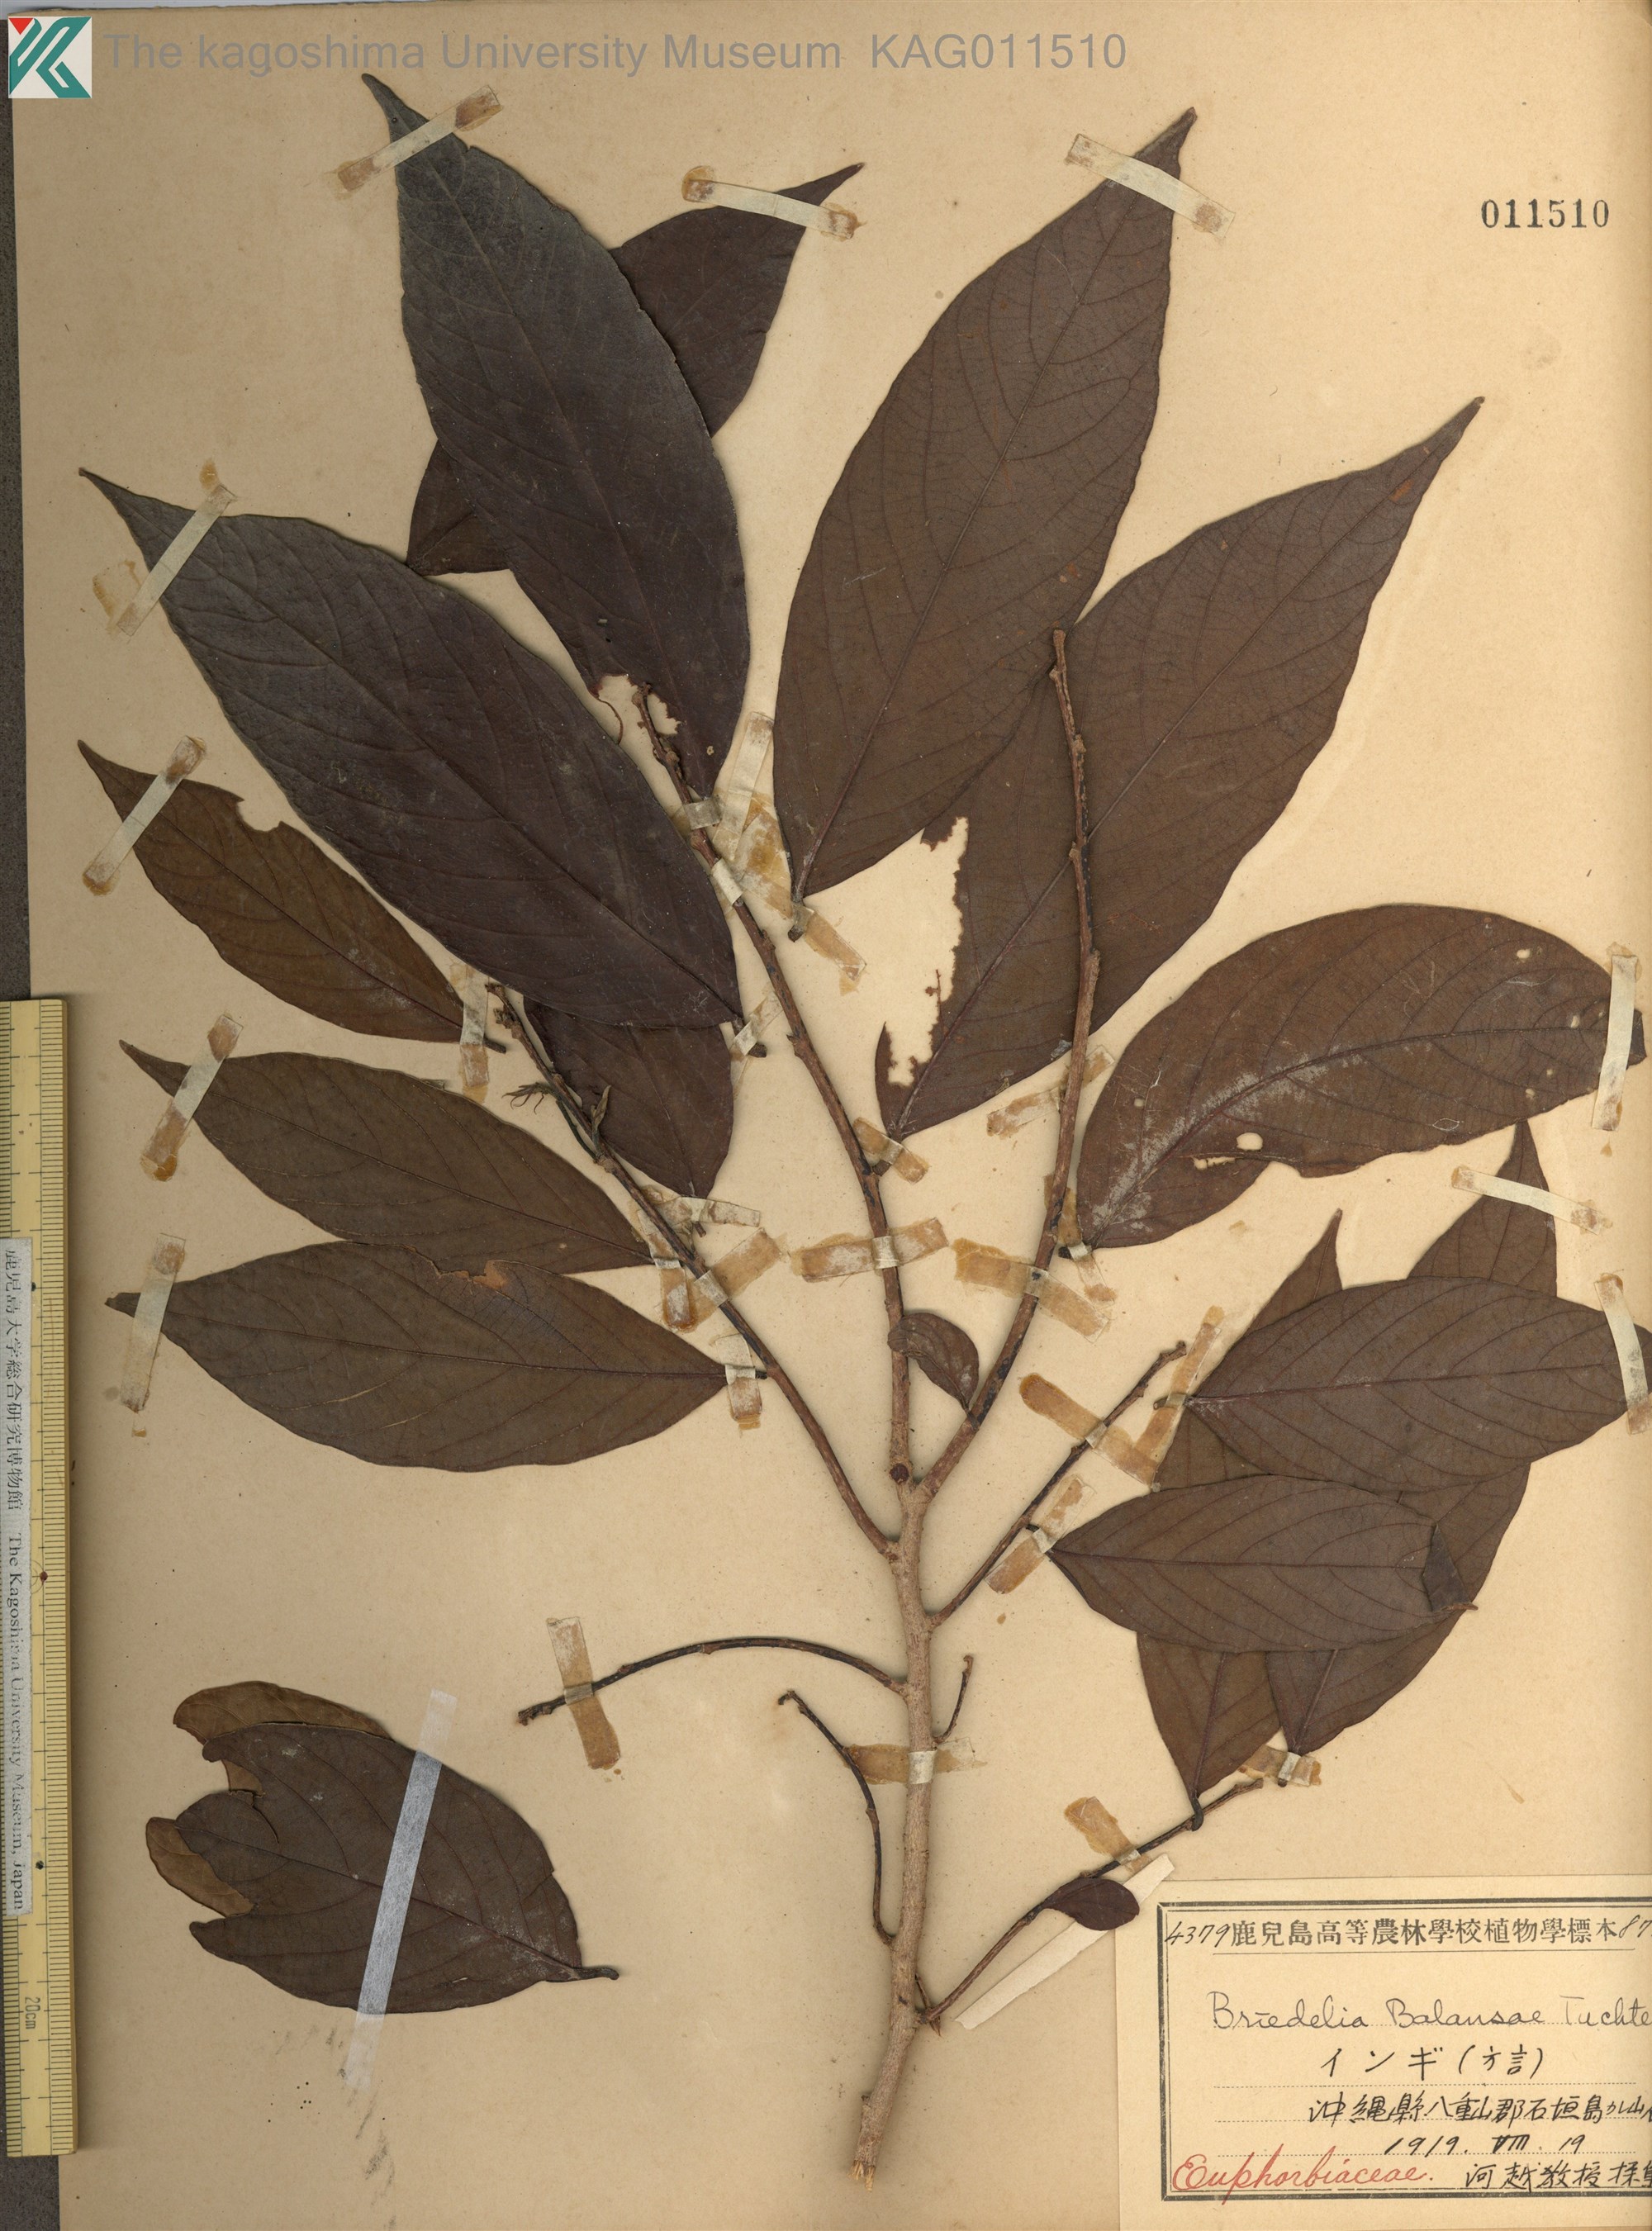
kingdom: Plantae
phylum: Tracheophyta
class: Magnoliopsida
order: Malpighiales
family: Phyllanthaceae
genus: Bridelia
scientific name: Bridelia balansae
